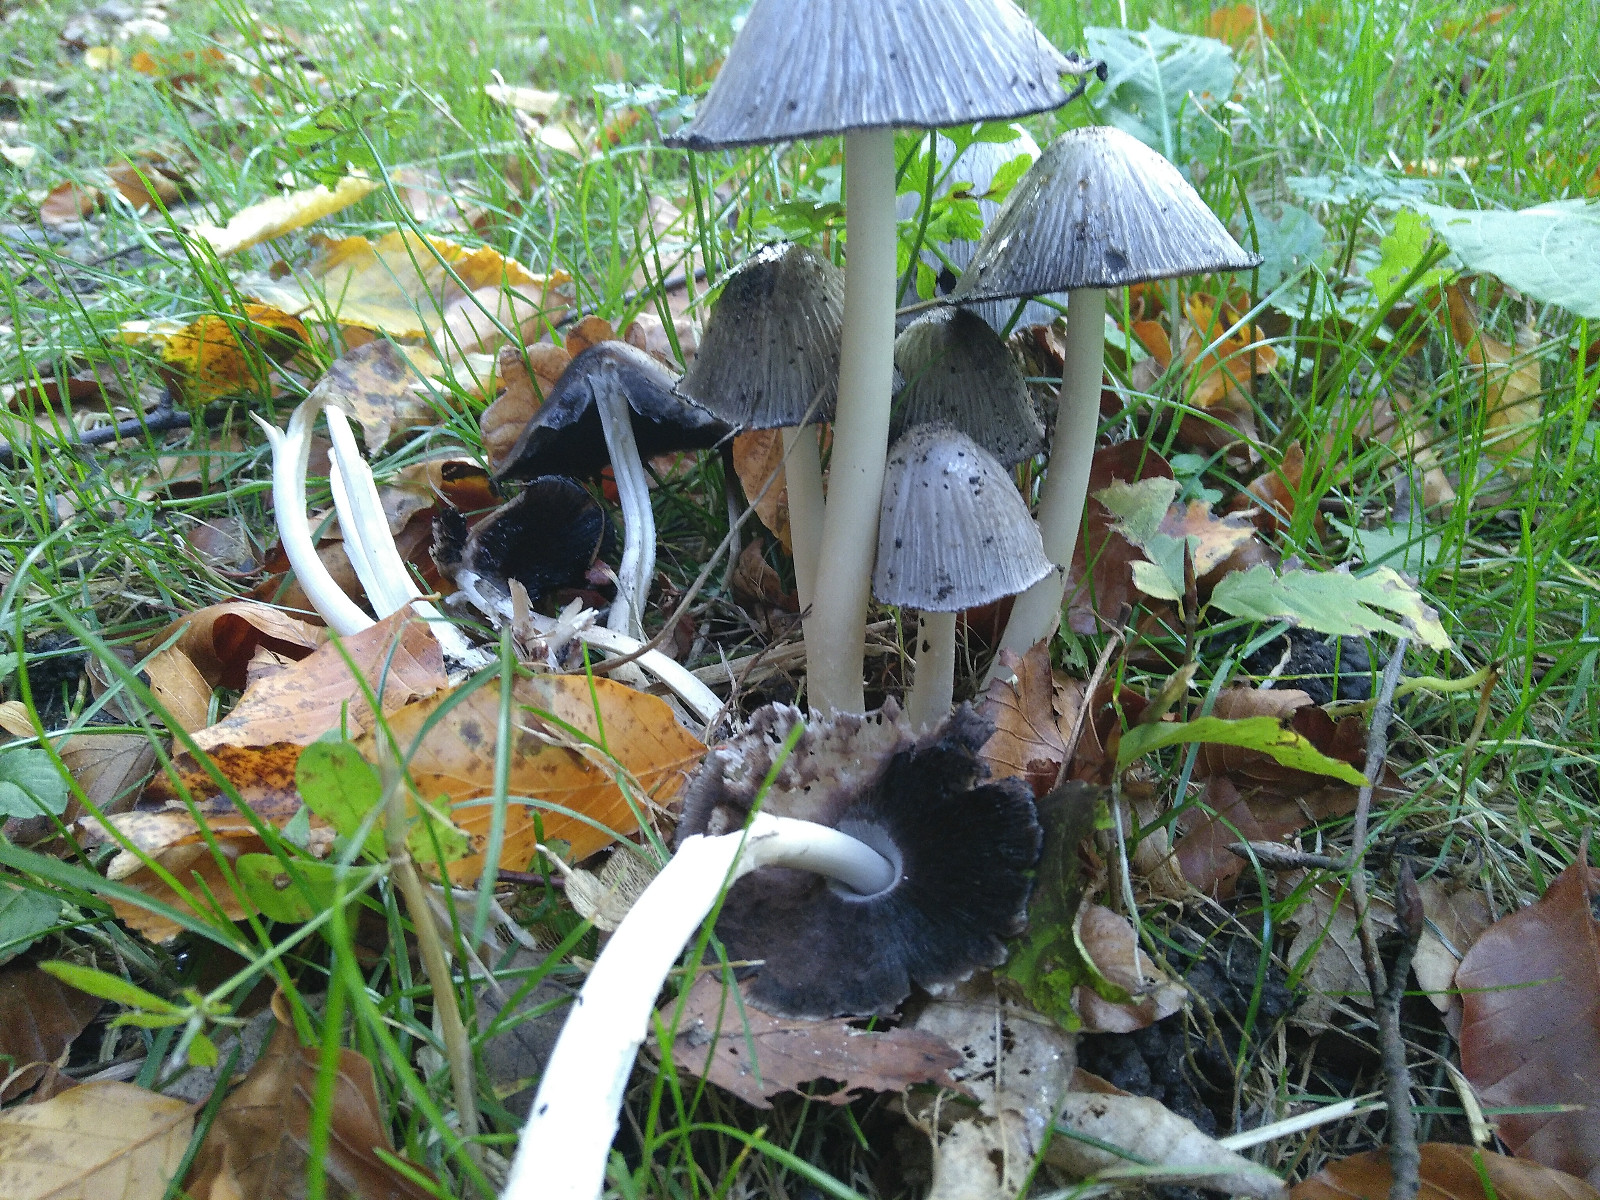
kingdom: Fungi
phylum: Basidiomycota
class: Agaricomycetes
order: Agaricales
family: Psathyrellaceae
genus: Coprinopsis
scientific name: Coprinopsis atramentaria
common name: almindelig blækhat
